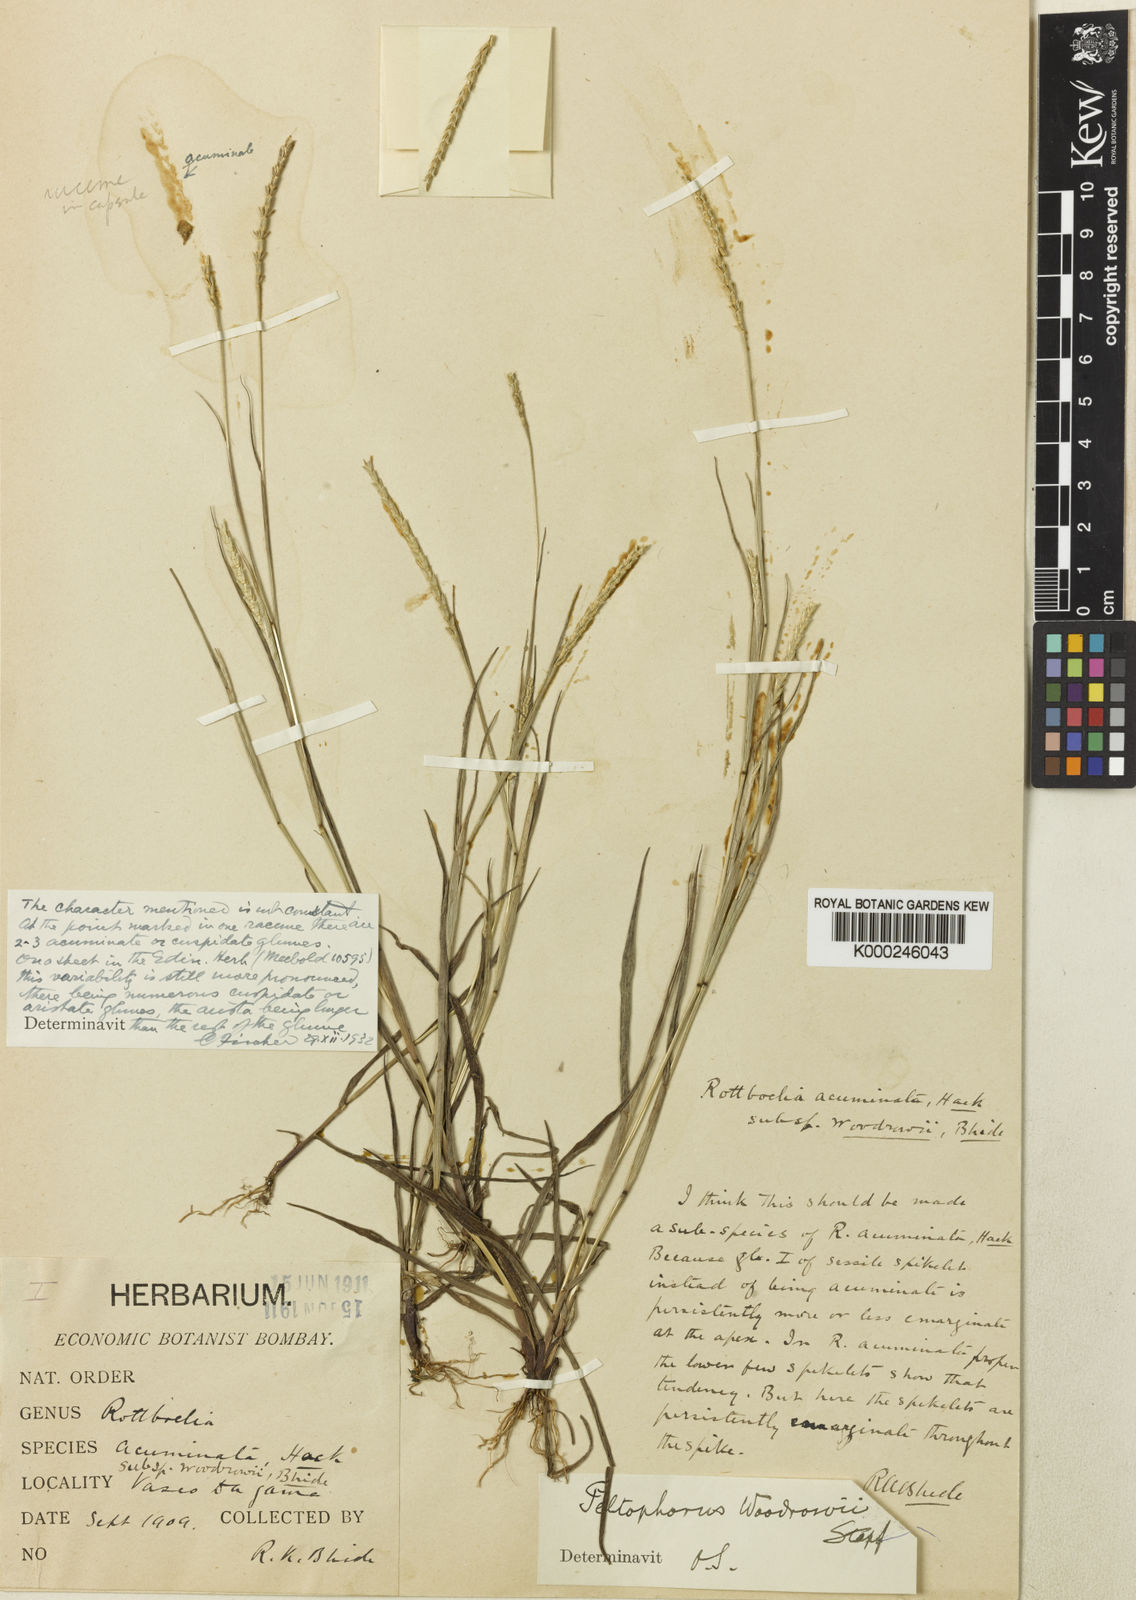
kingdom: Plantae
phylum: Tracheophyta
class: Liliopsida
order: Poales
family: Poaceae
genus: Glyphochloa
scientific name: Glyphochloa acuminata
